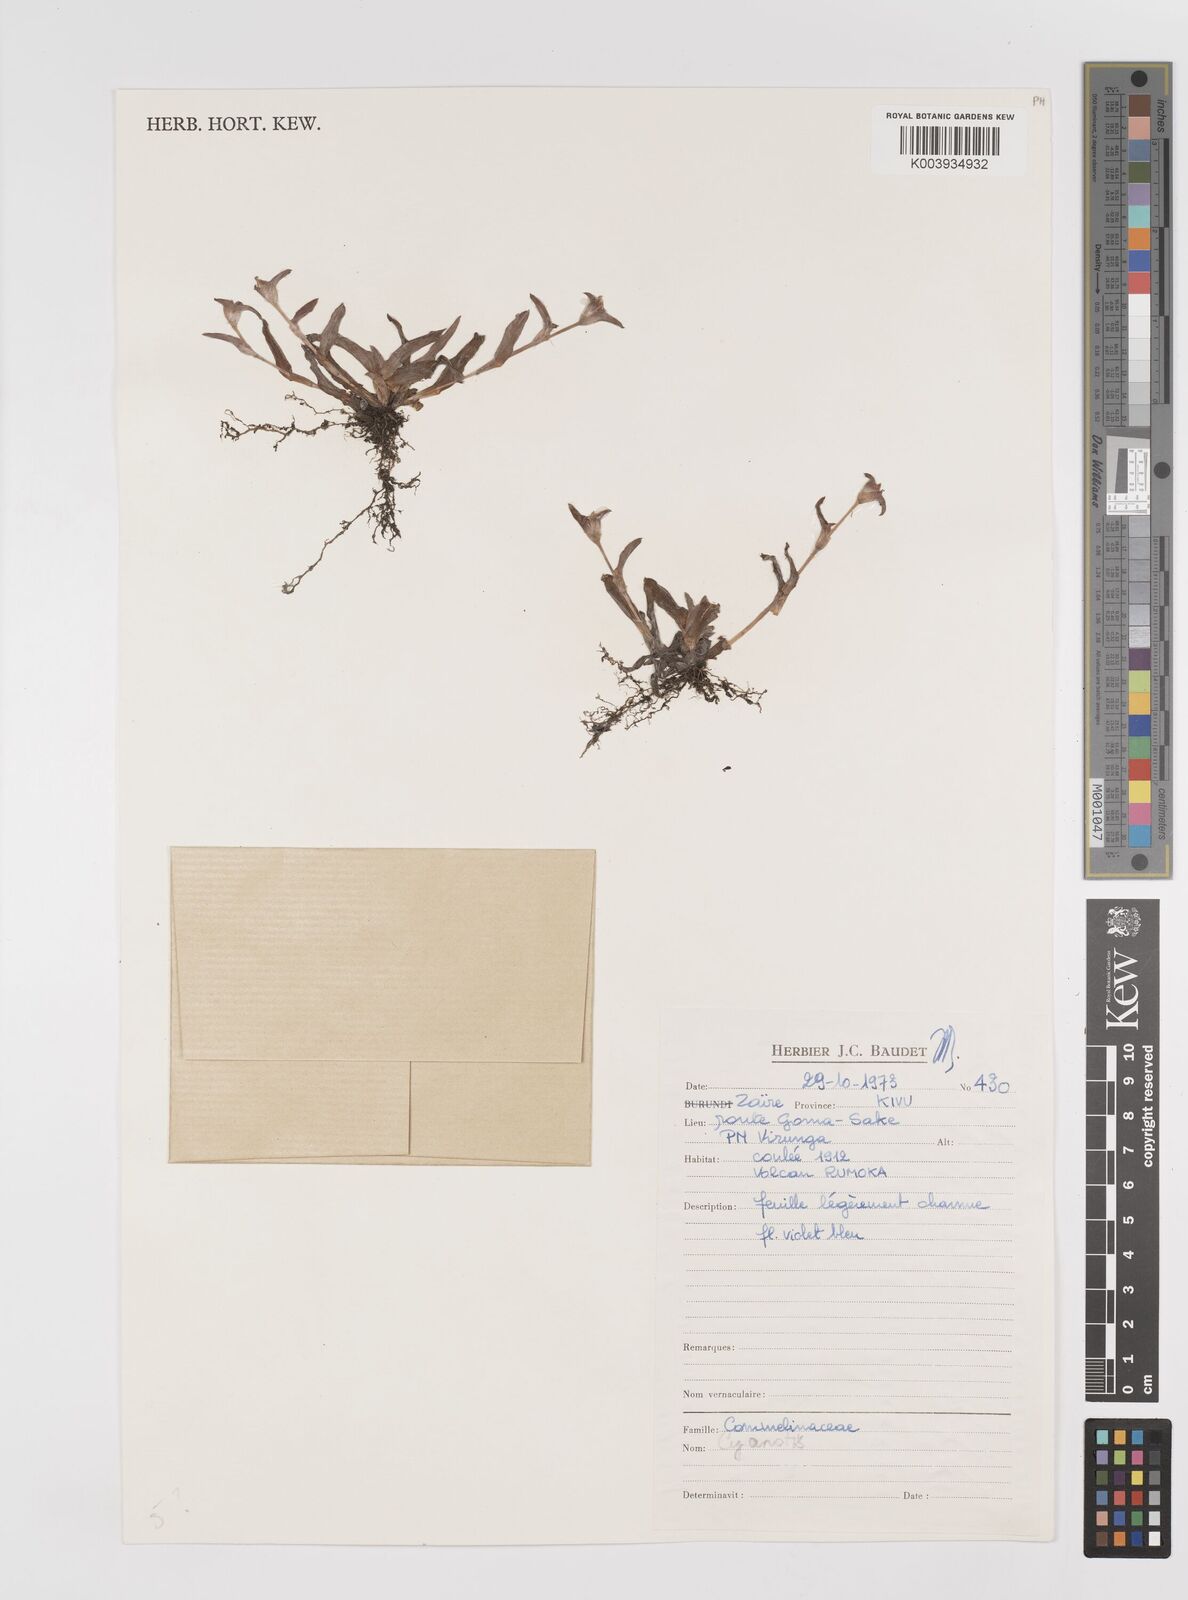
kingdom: Plantae
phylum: Tracheophyta
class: Liliopsida
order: Commelinales
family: Commelinaceae
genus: Cyanotis
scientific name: Cyanotis
